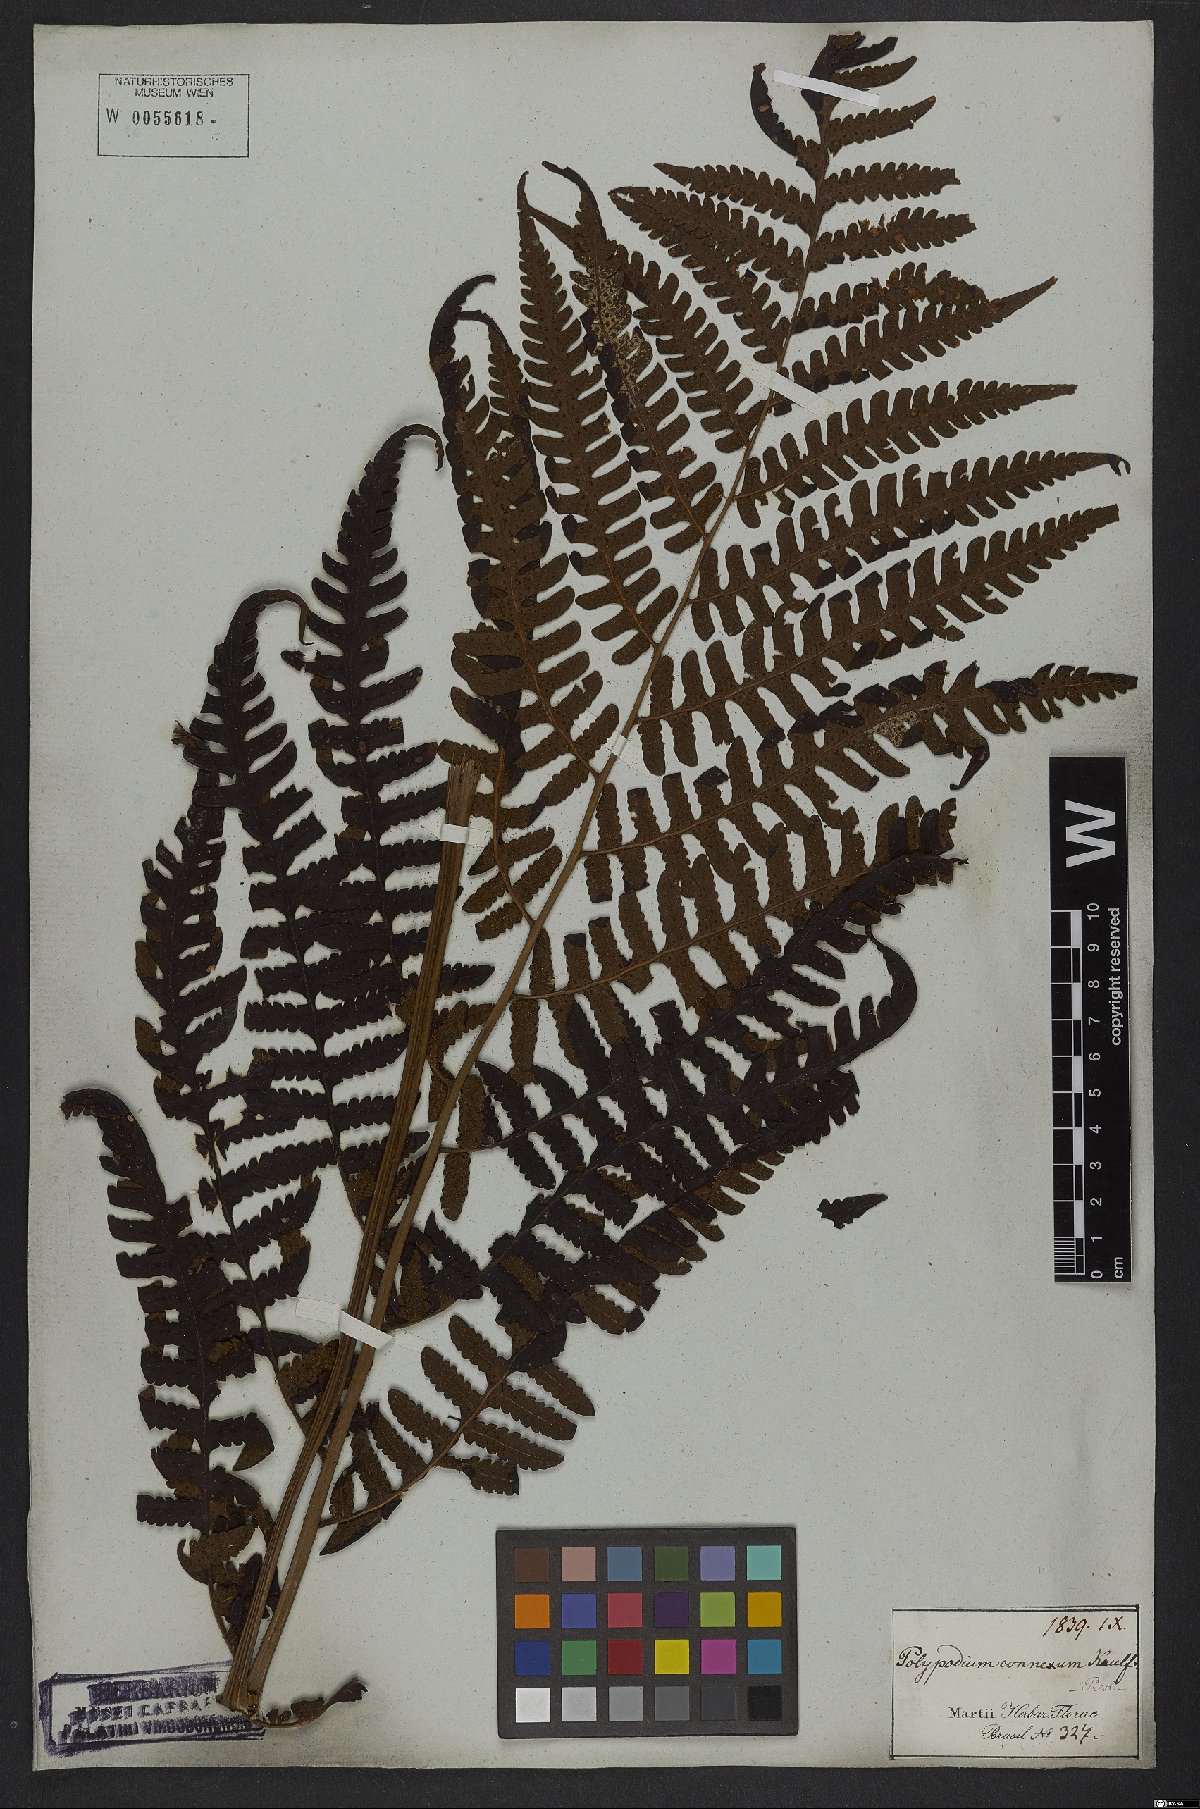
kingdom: Plantae
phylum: Tracheophyta
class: Polypodiopsida
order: Polypodiales
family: Dryopteridaceae
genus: Megalastrum
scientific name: Megalastrum connexum
